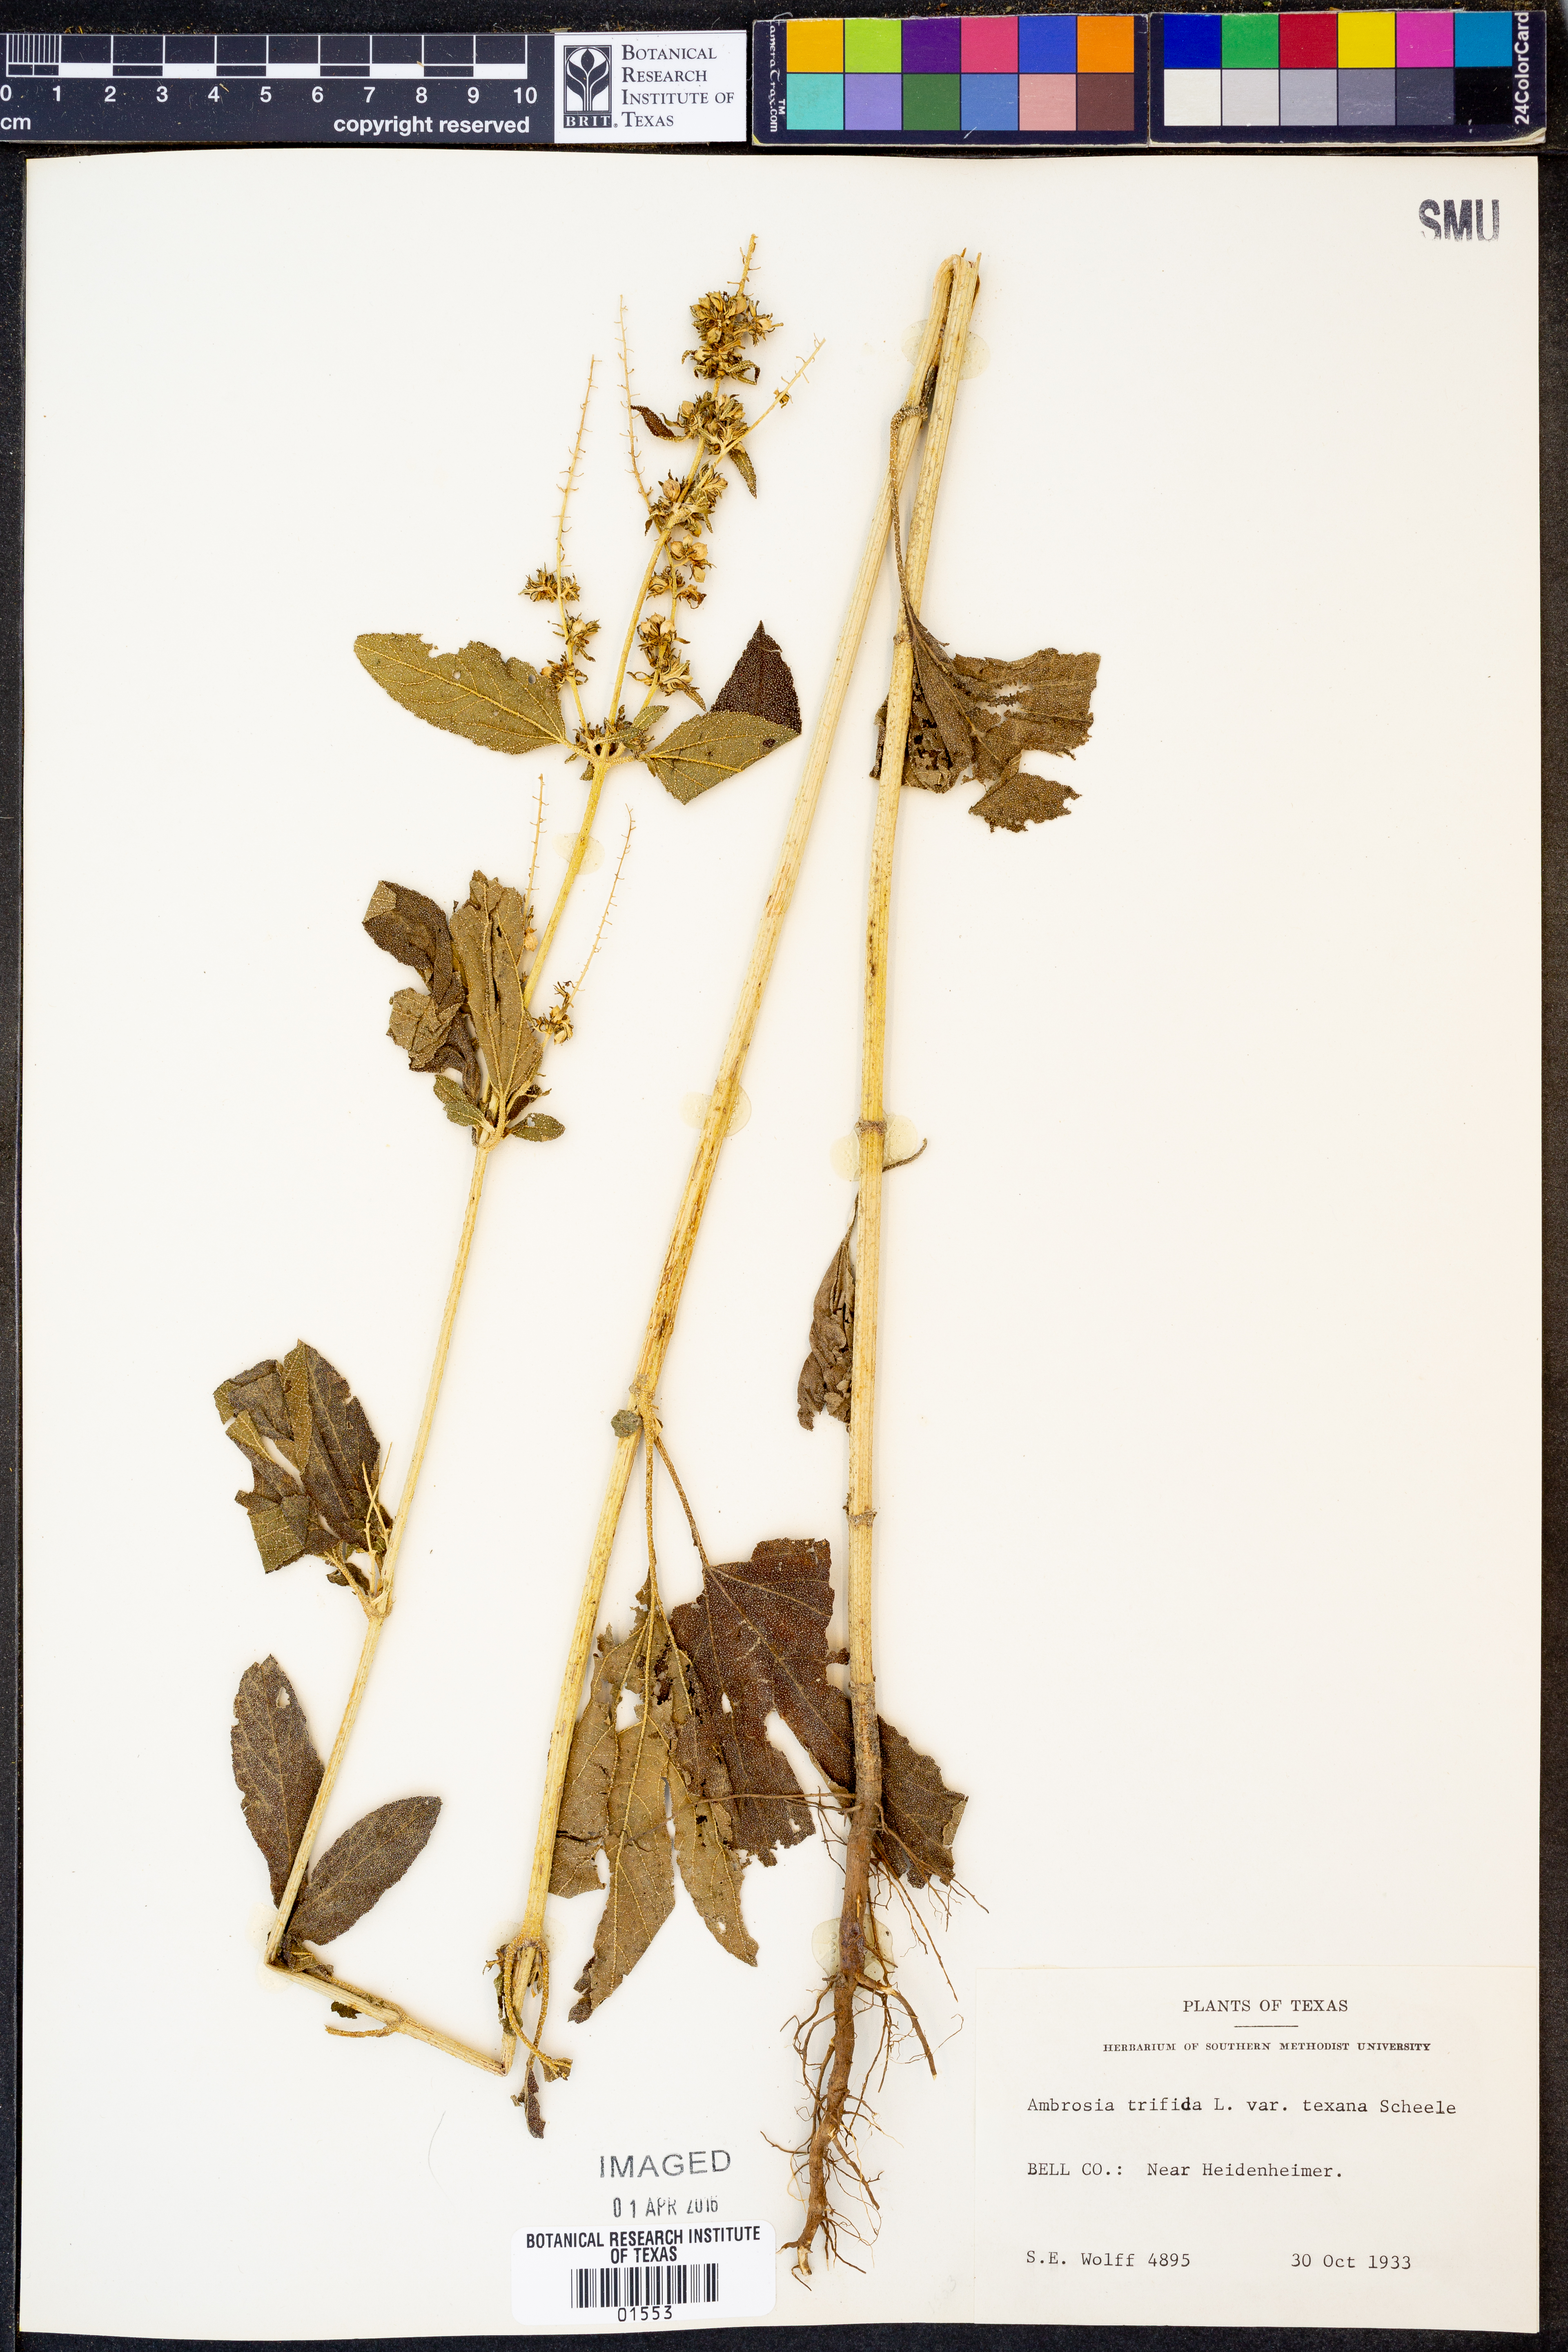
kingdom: Plantae
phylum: Tracheophyta
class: Magnoliopsida
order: Asterales
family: Asteraceae
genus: Ambrosia
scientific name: Ambrosia trifida
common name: Giant ragweed
